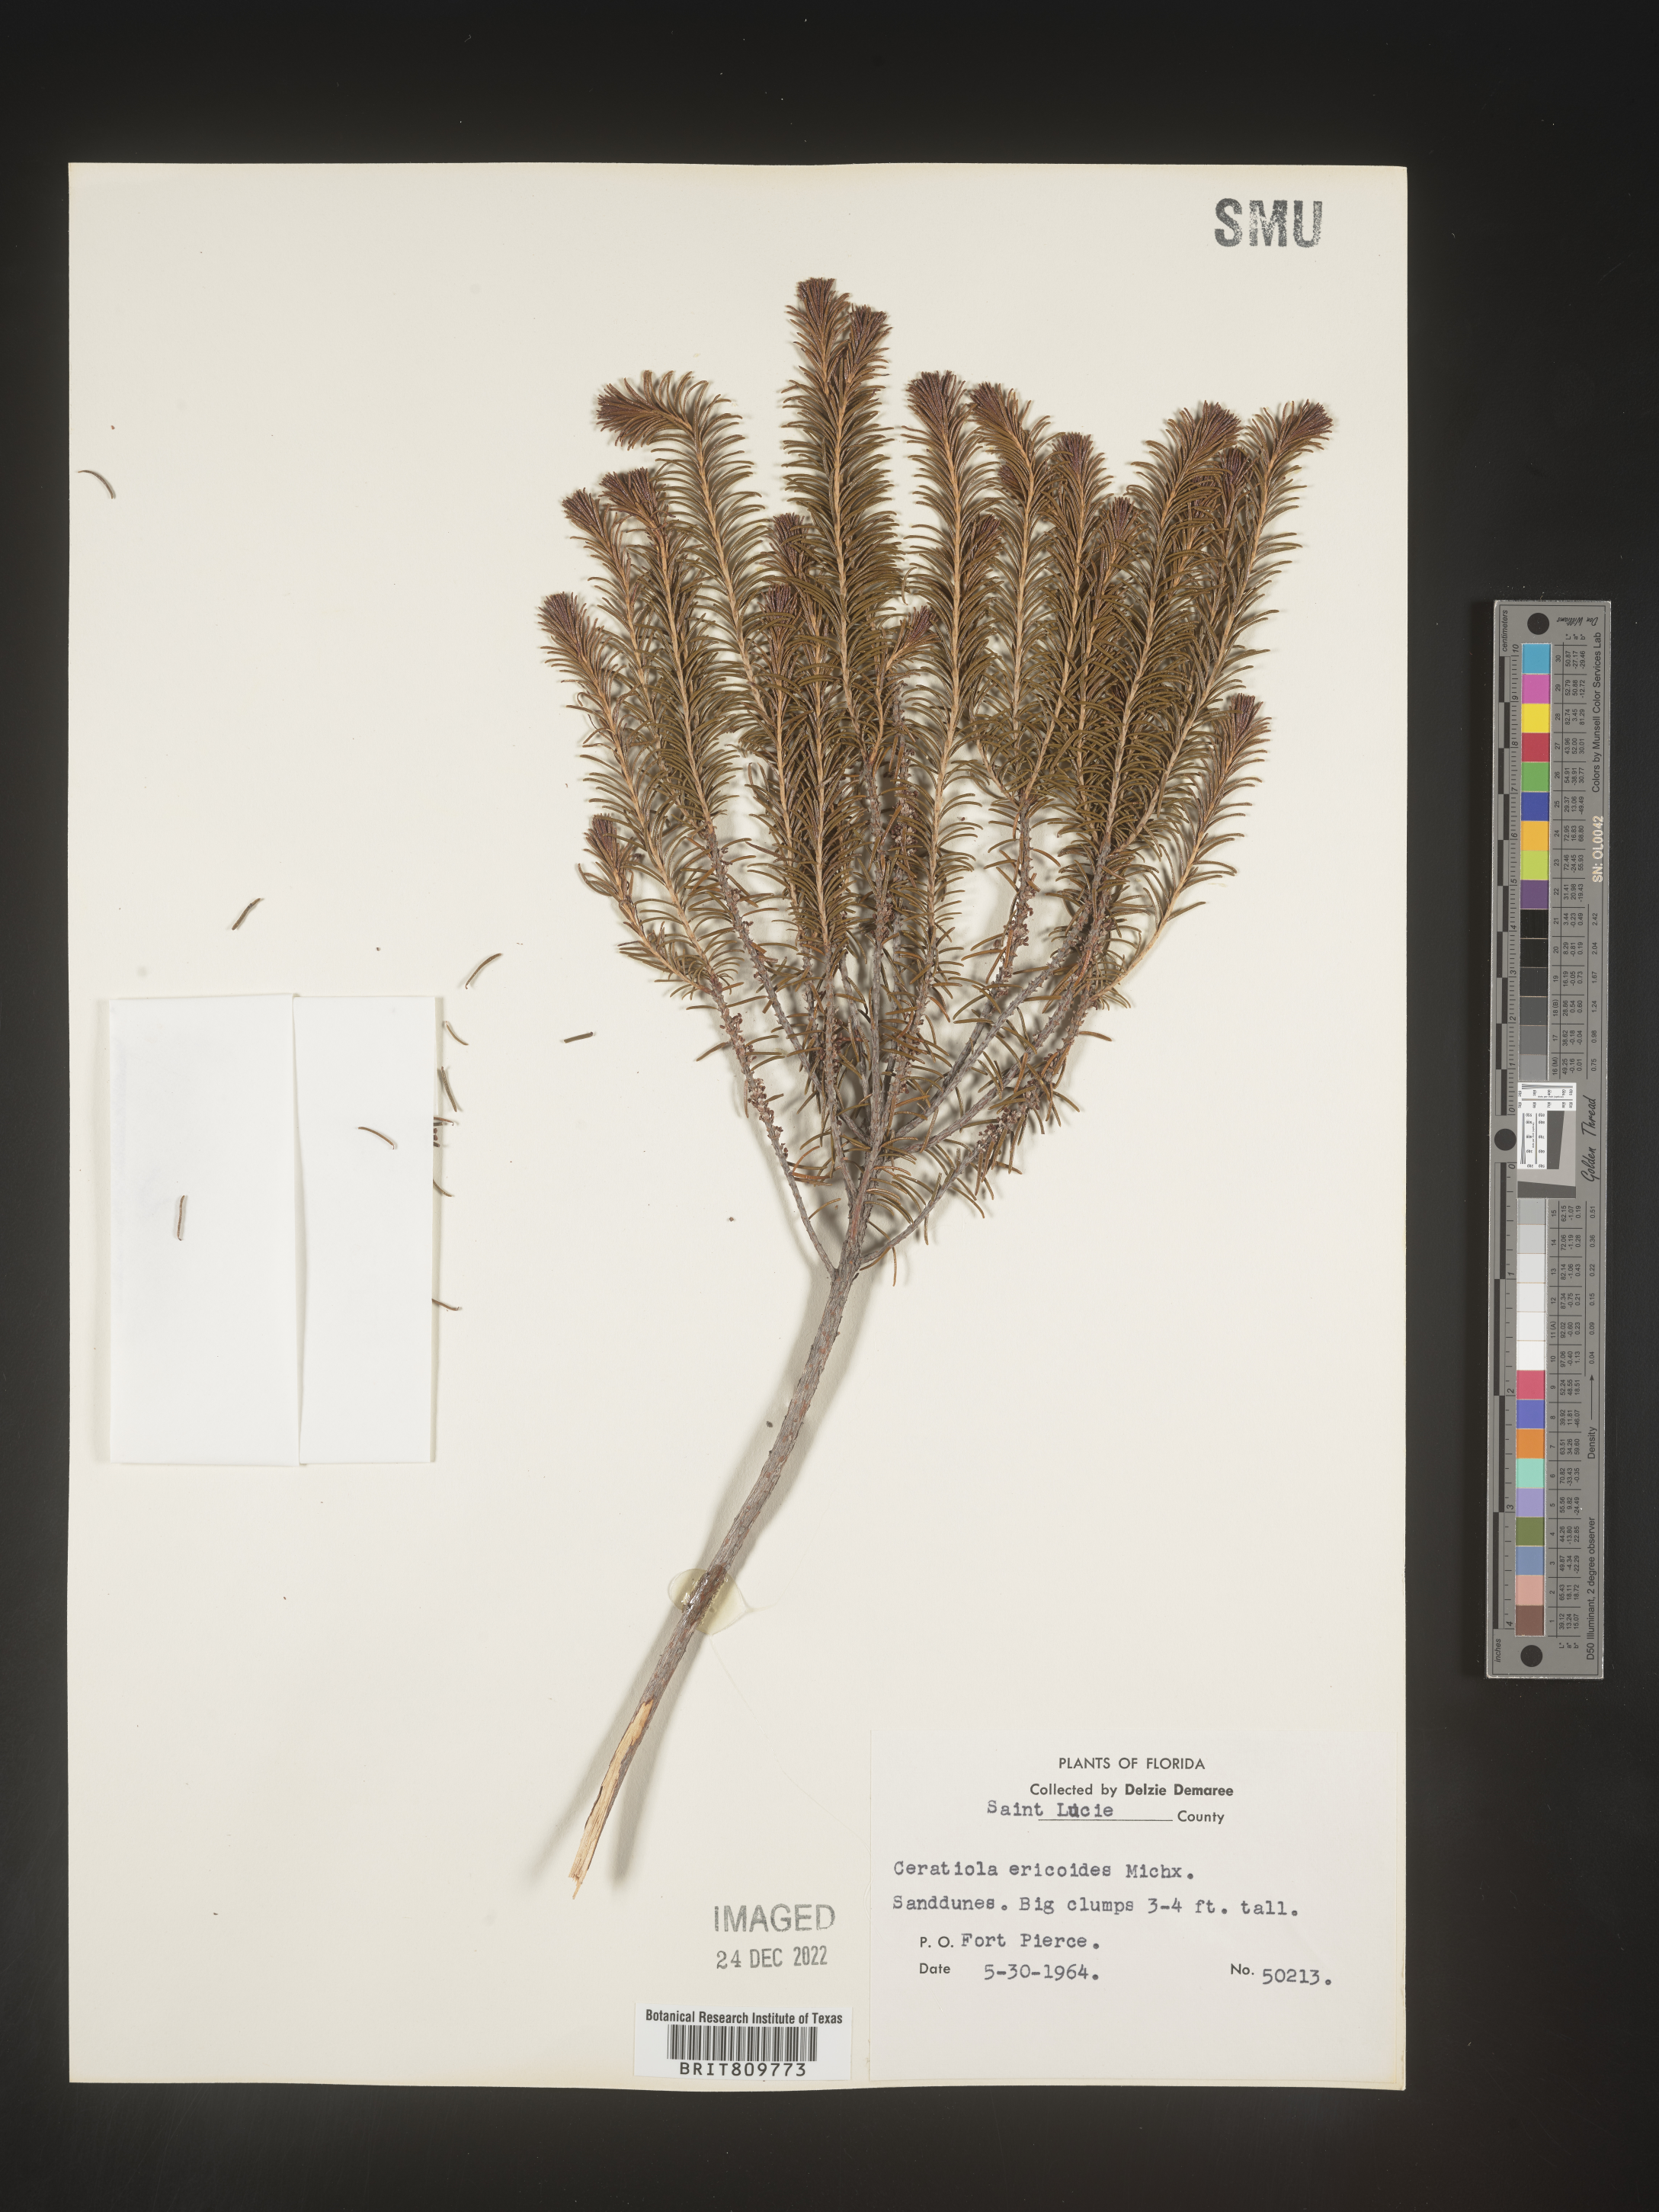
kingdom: Plantae
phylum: Tracheophyta
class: Magnoliopsida
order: Ericales
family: Ericaceae
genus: Ceratiola
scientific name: Ceratiola ericoides
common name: Sandhill-rosemary
